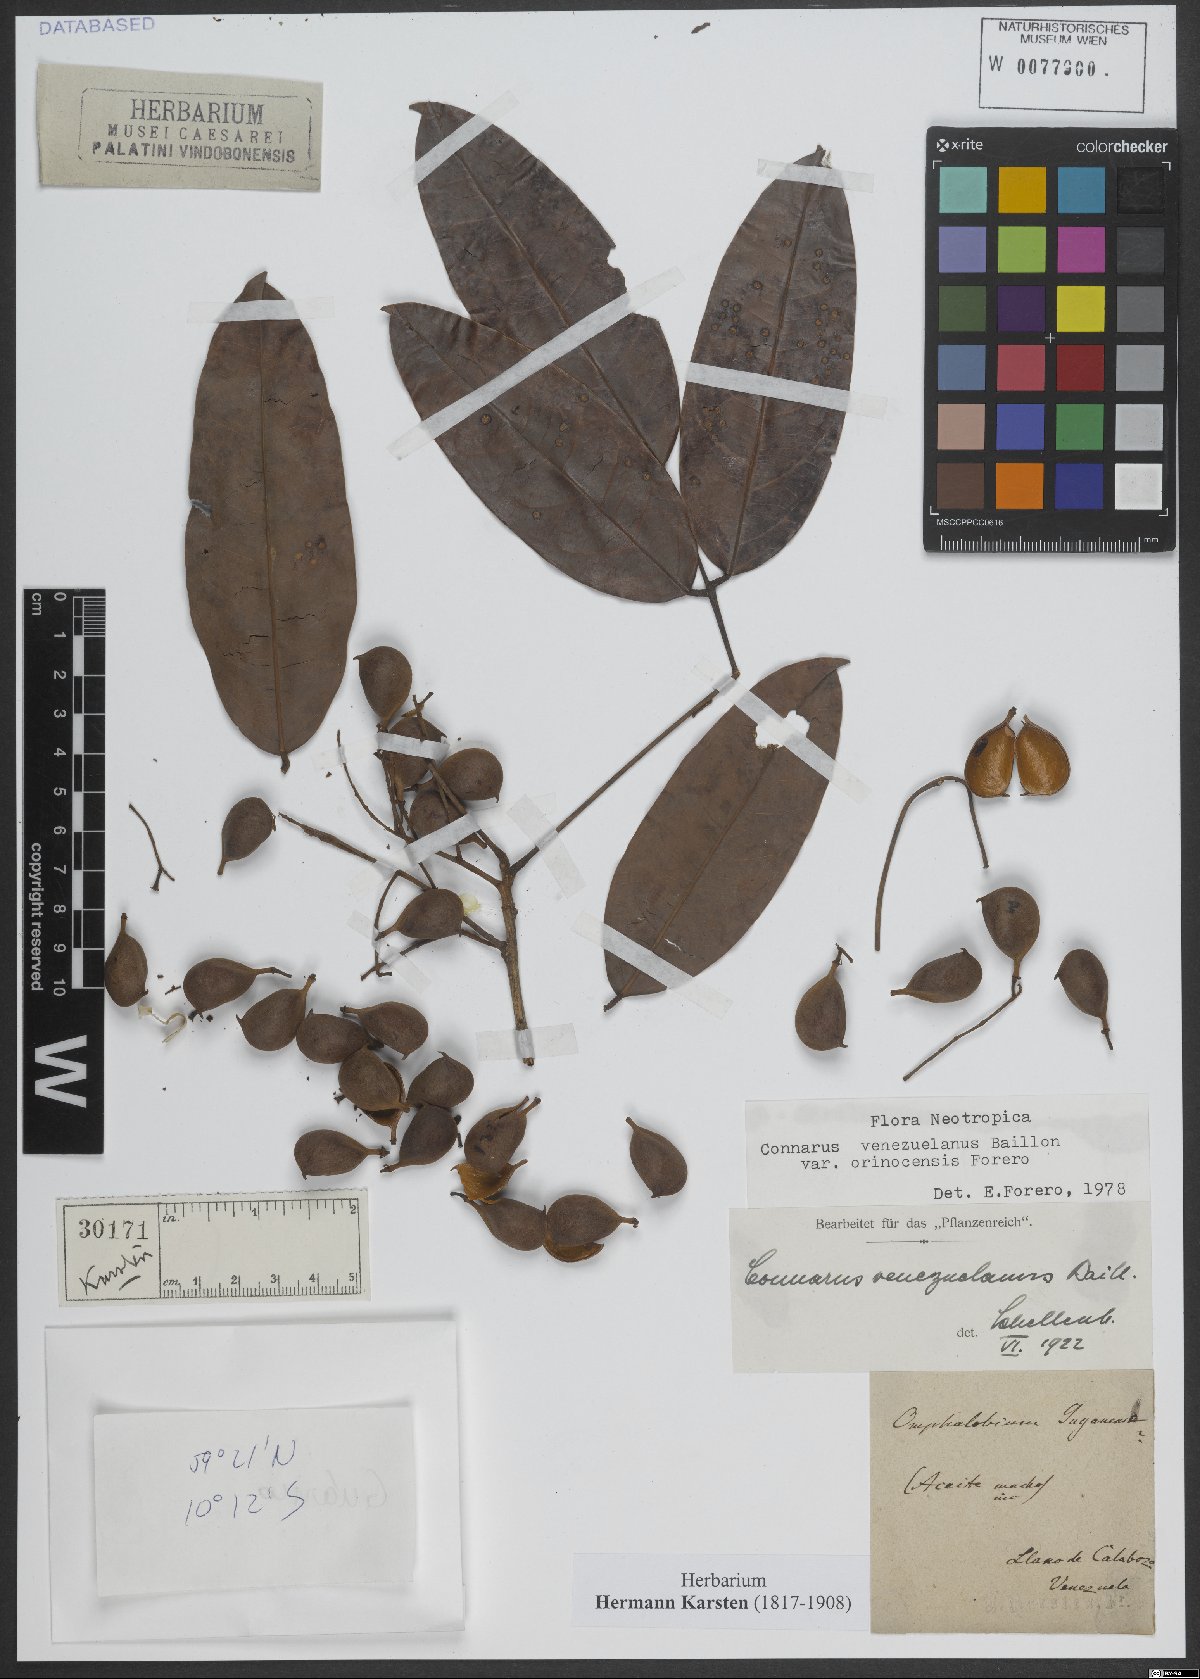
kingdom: Plantae
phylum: Tracheophyta
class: Magnoliopsida
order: Oxalidales
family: Connaraceae
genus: Connarus
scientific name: Connarus venezuelanus
